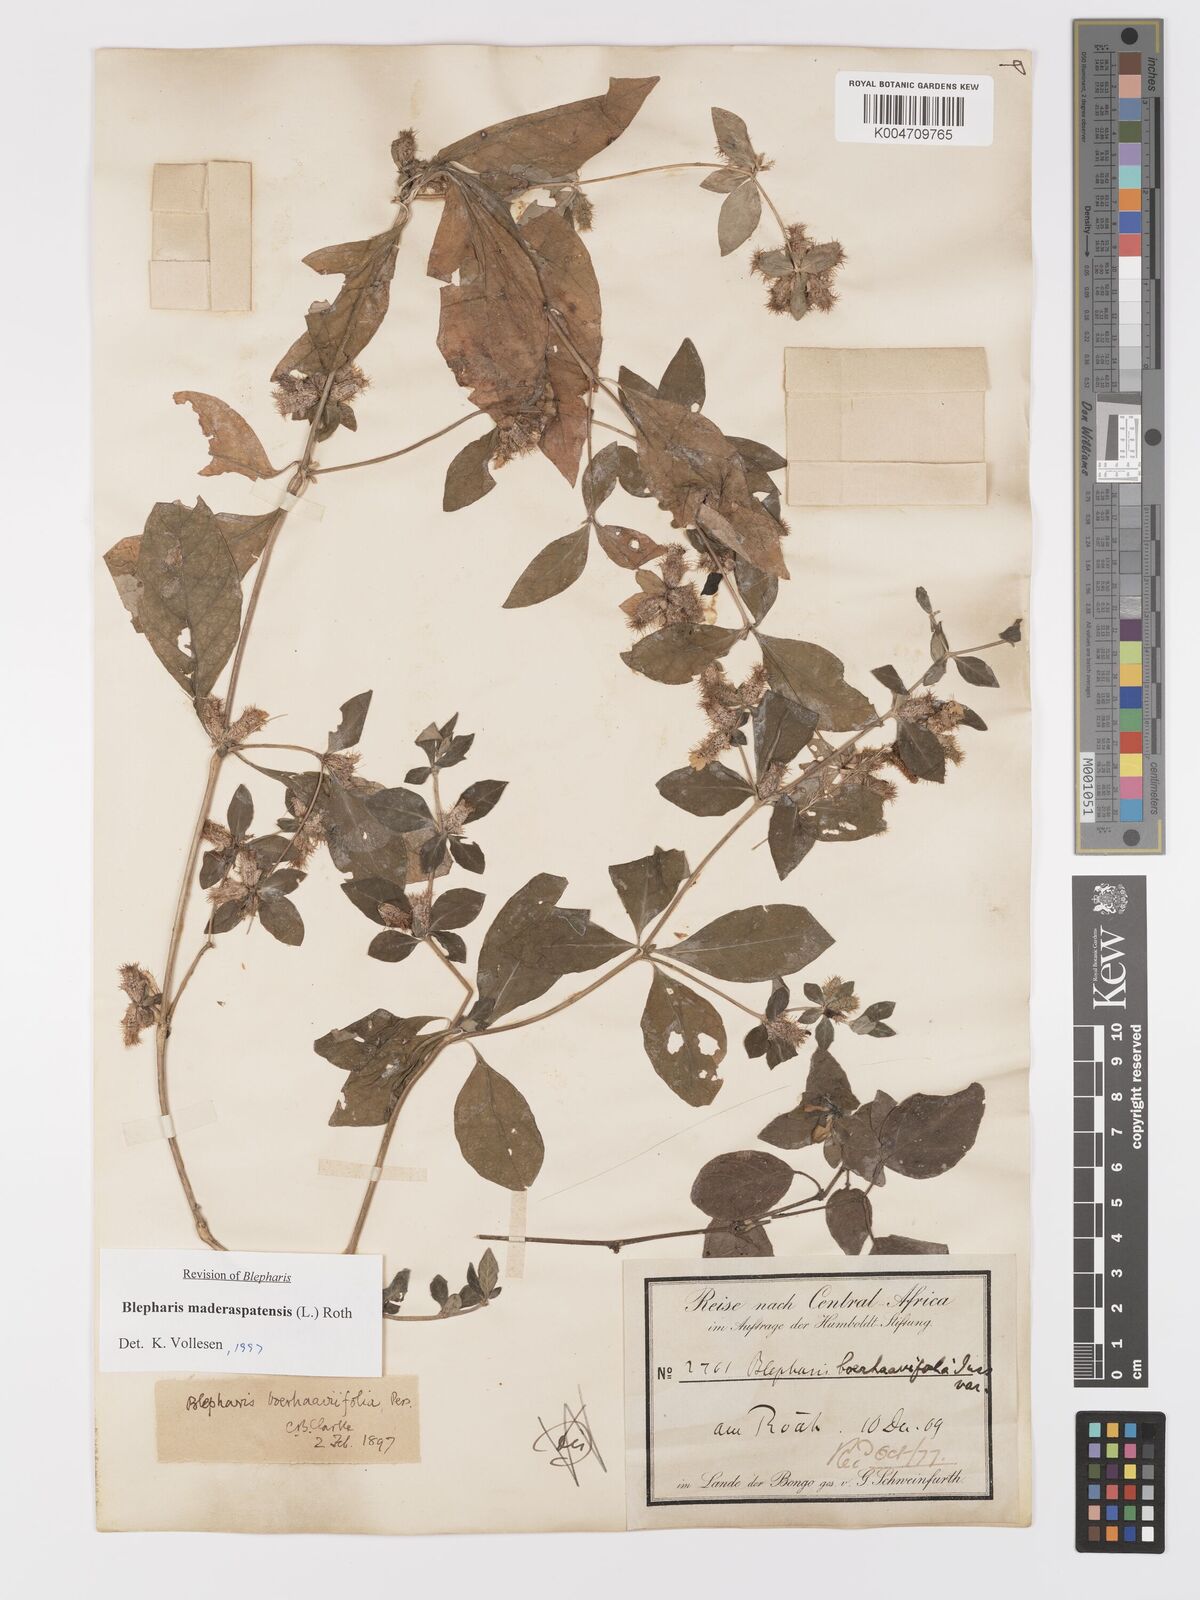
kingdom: Plantae
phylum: Tracheophyta
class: Magnoliopsida
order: Lamiales
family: Acanthaceae
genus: Blepharis
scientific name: Blepharis maderaspatensis
